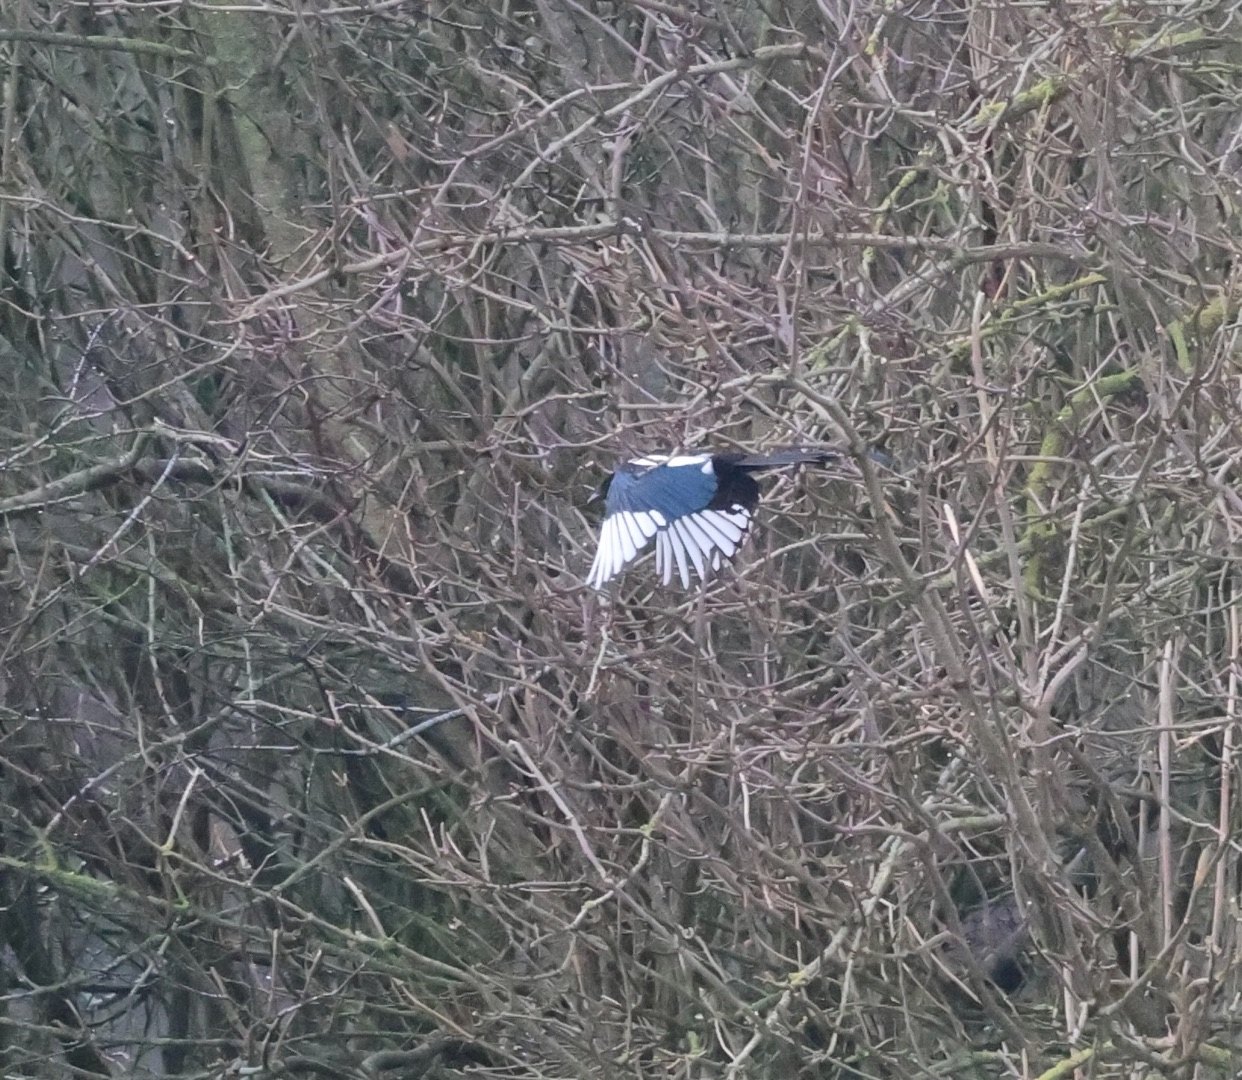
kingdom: Animalia
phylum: Chordata
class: Aves
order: Passeriformes
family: Corvidae
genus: Pica
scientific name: Pica pica
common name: Husskade
